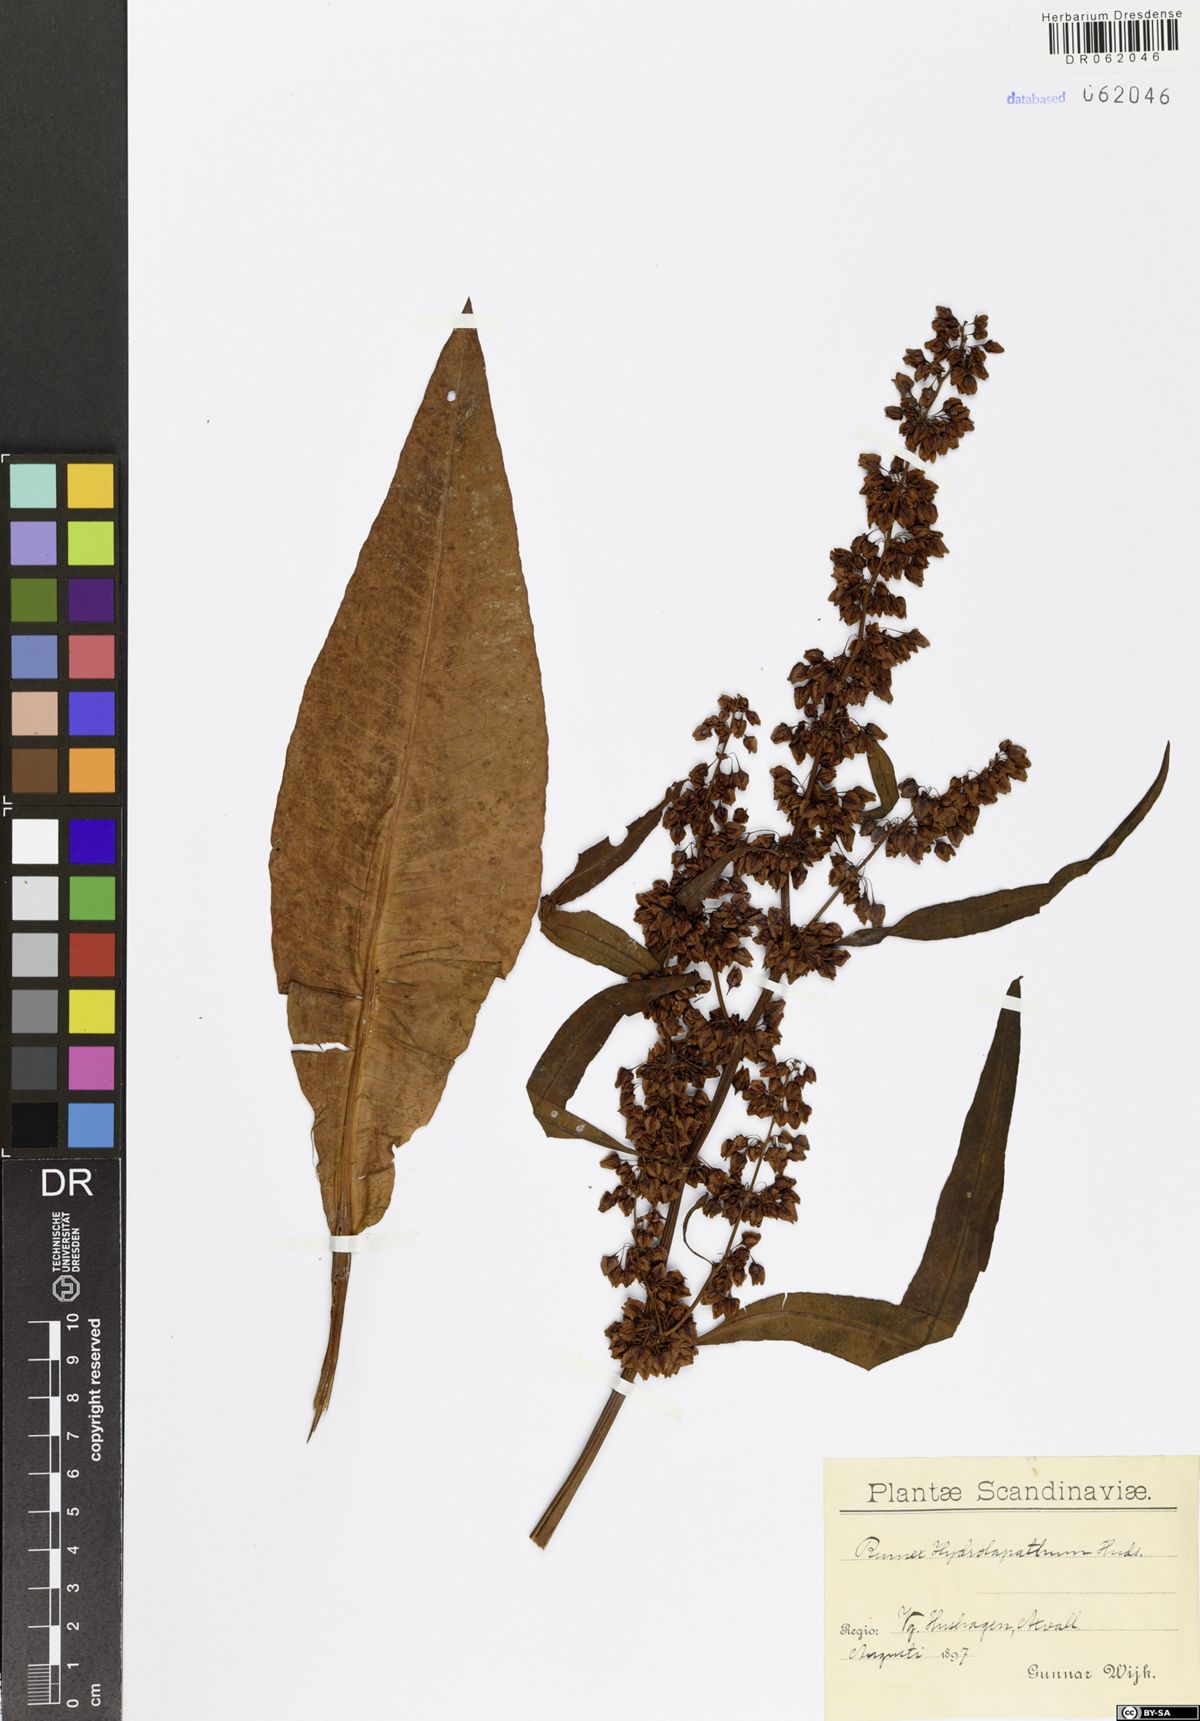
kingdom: Plantae
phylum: Tracheophyta
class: Magnoliopsida
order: Caryophyllales
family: Polygonaceae
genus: Rumex
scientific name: Rumex hydrolapathum
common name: Water dock
